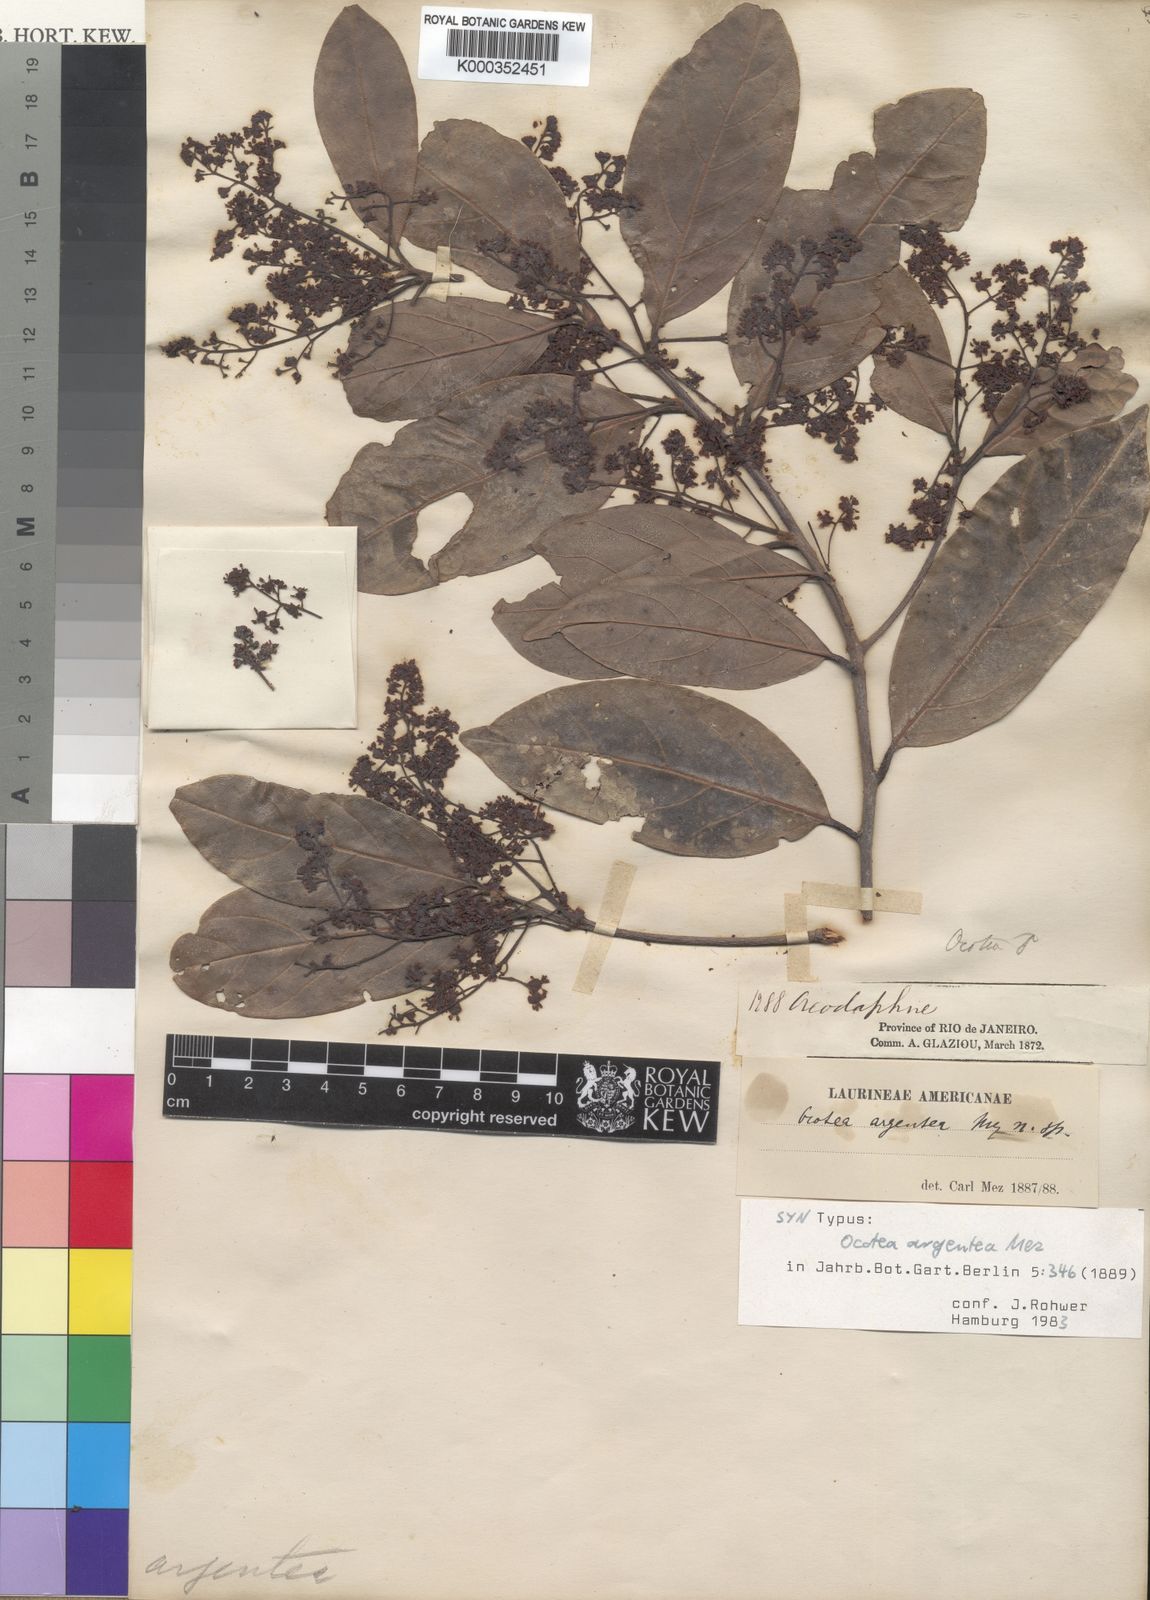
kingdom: Plantae
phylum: Tracheophyta
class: Magnoliopsida
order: Laurales
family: Lauraceae
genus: Ocotea
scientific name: Ocotea argentea
